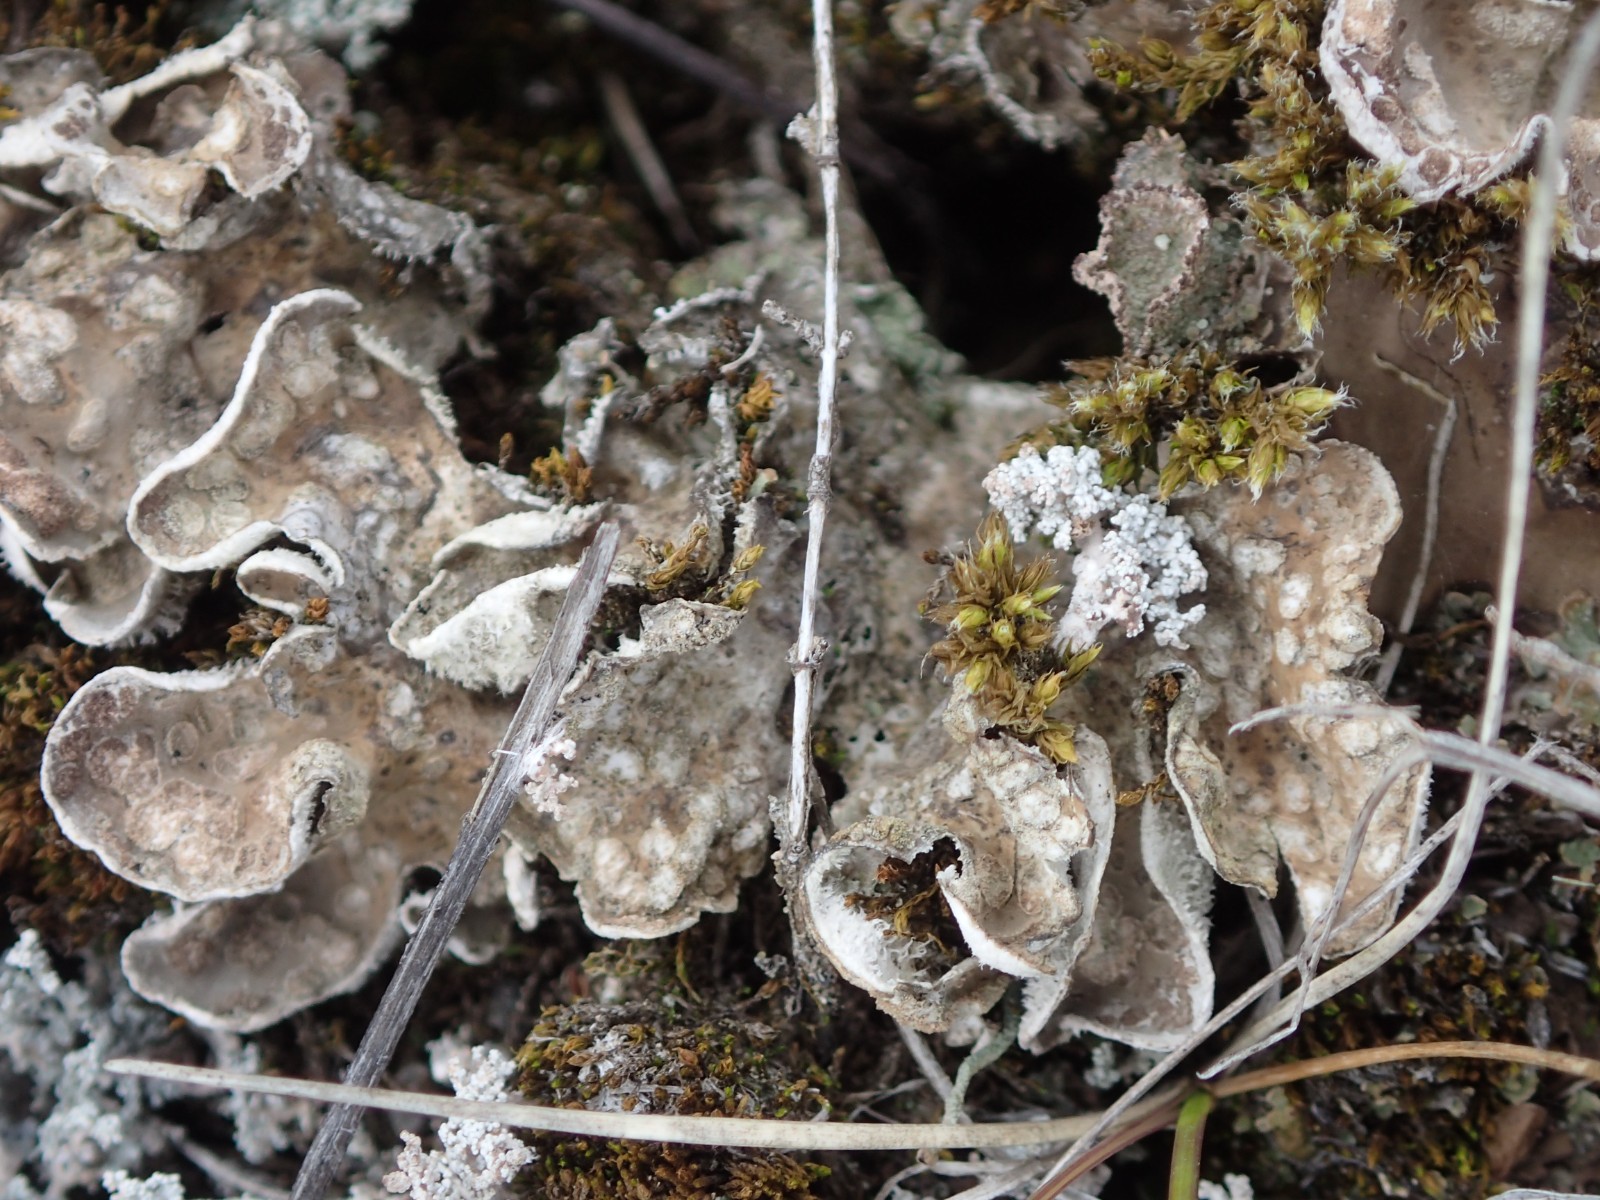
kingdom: Fungi
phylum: Ascomycota
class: Lecanoromycetes
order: Peltigerales
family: Peltigeraceae
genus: Peltigera
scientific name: Peltigera didactyla
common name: liden skjoldlav
